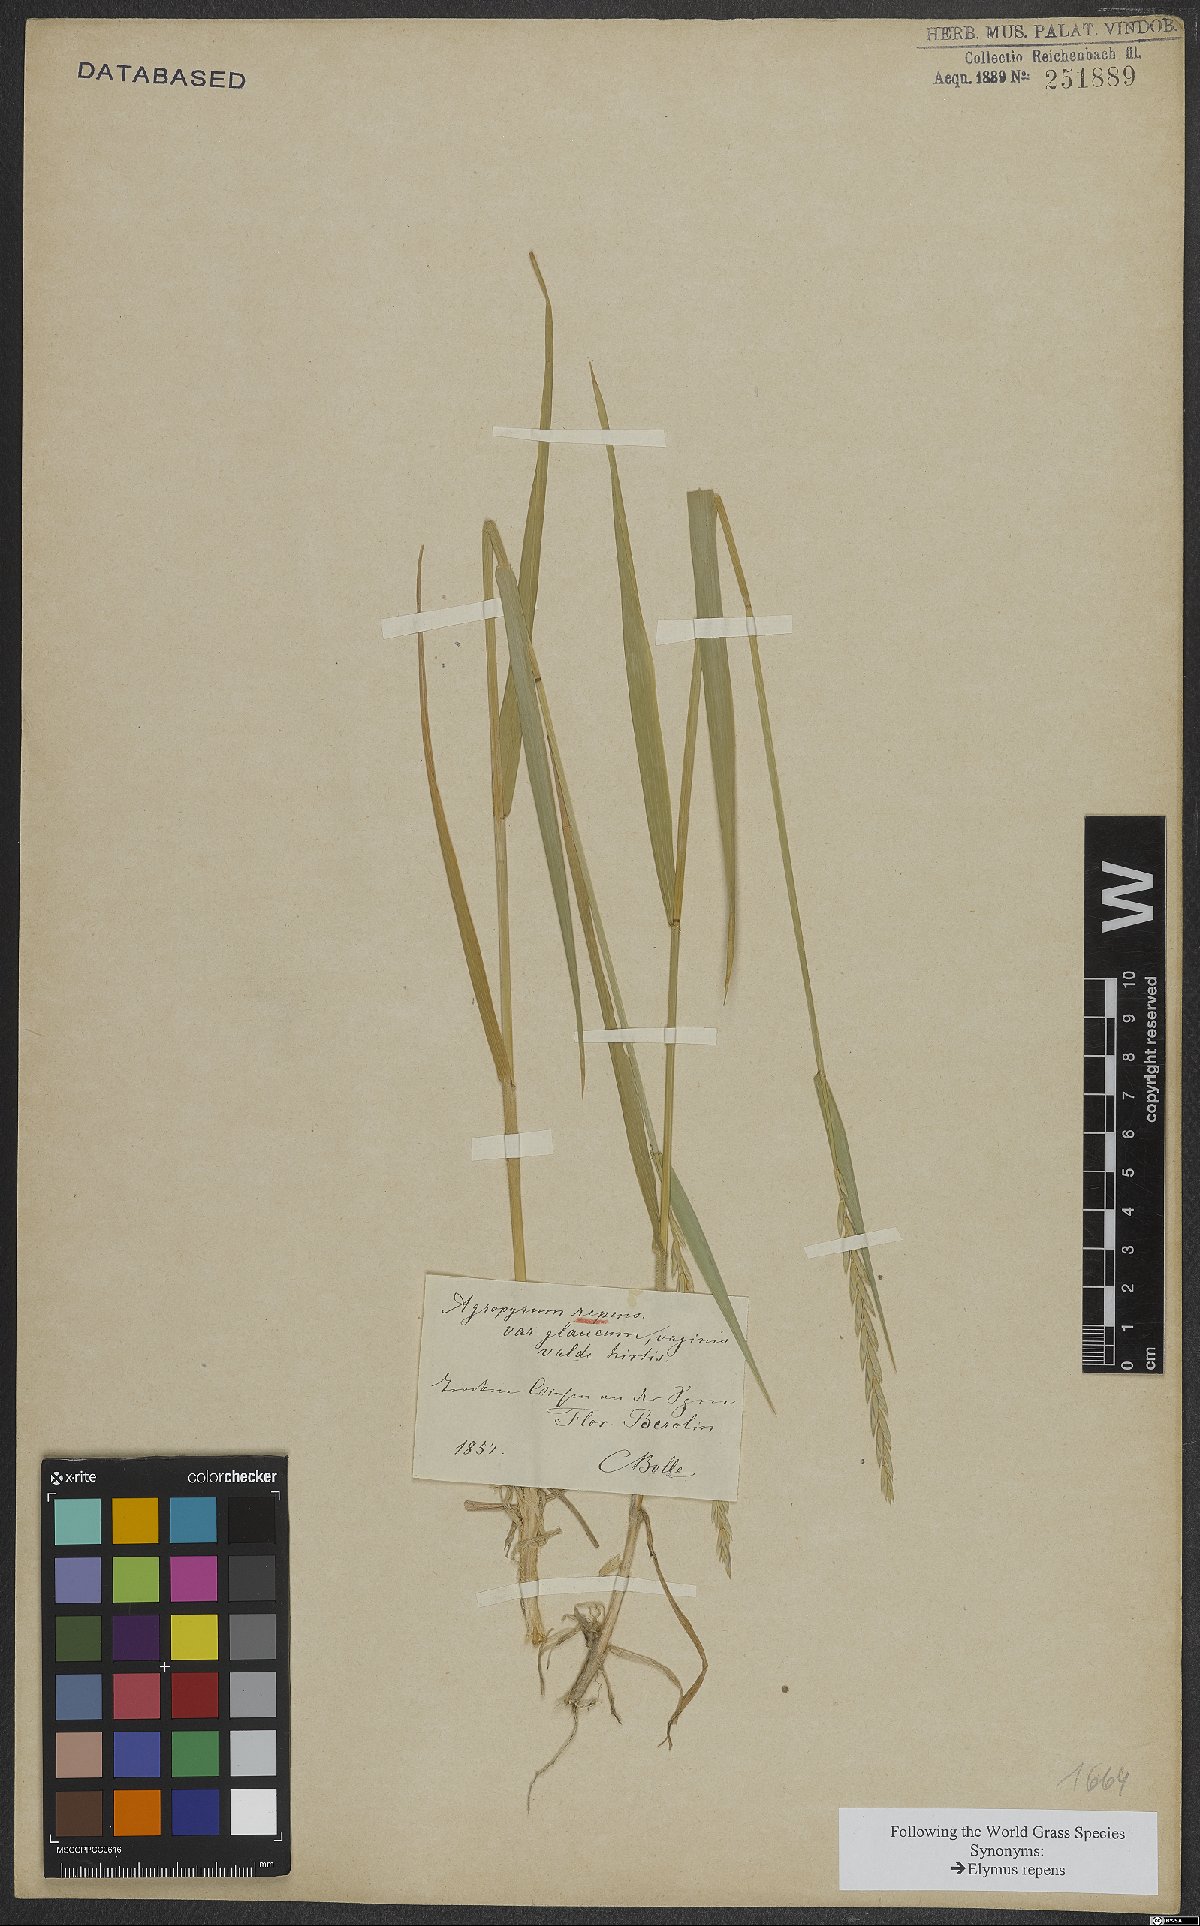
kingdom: Plantae
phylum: Tracheophyta
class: Liliopsida
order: Poales
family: Poaceae
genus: Elymus
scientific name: Elymus repens
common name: Quackgrass
